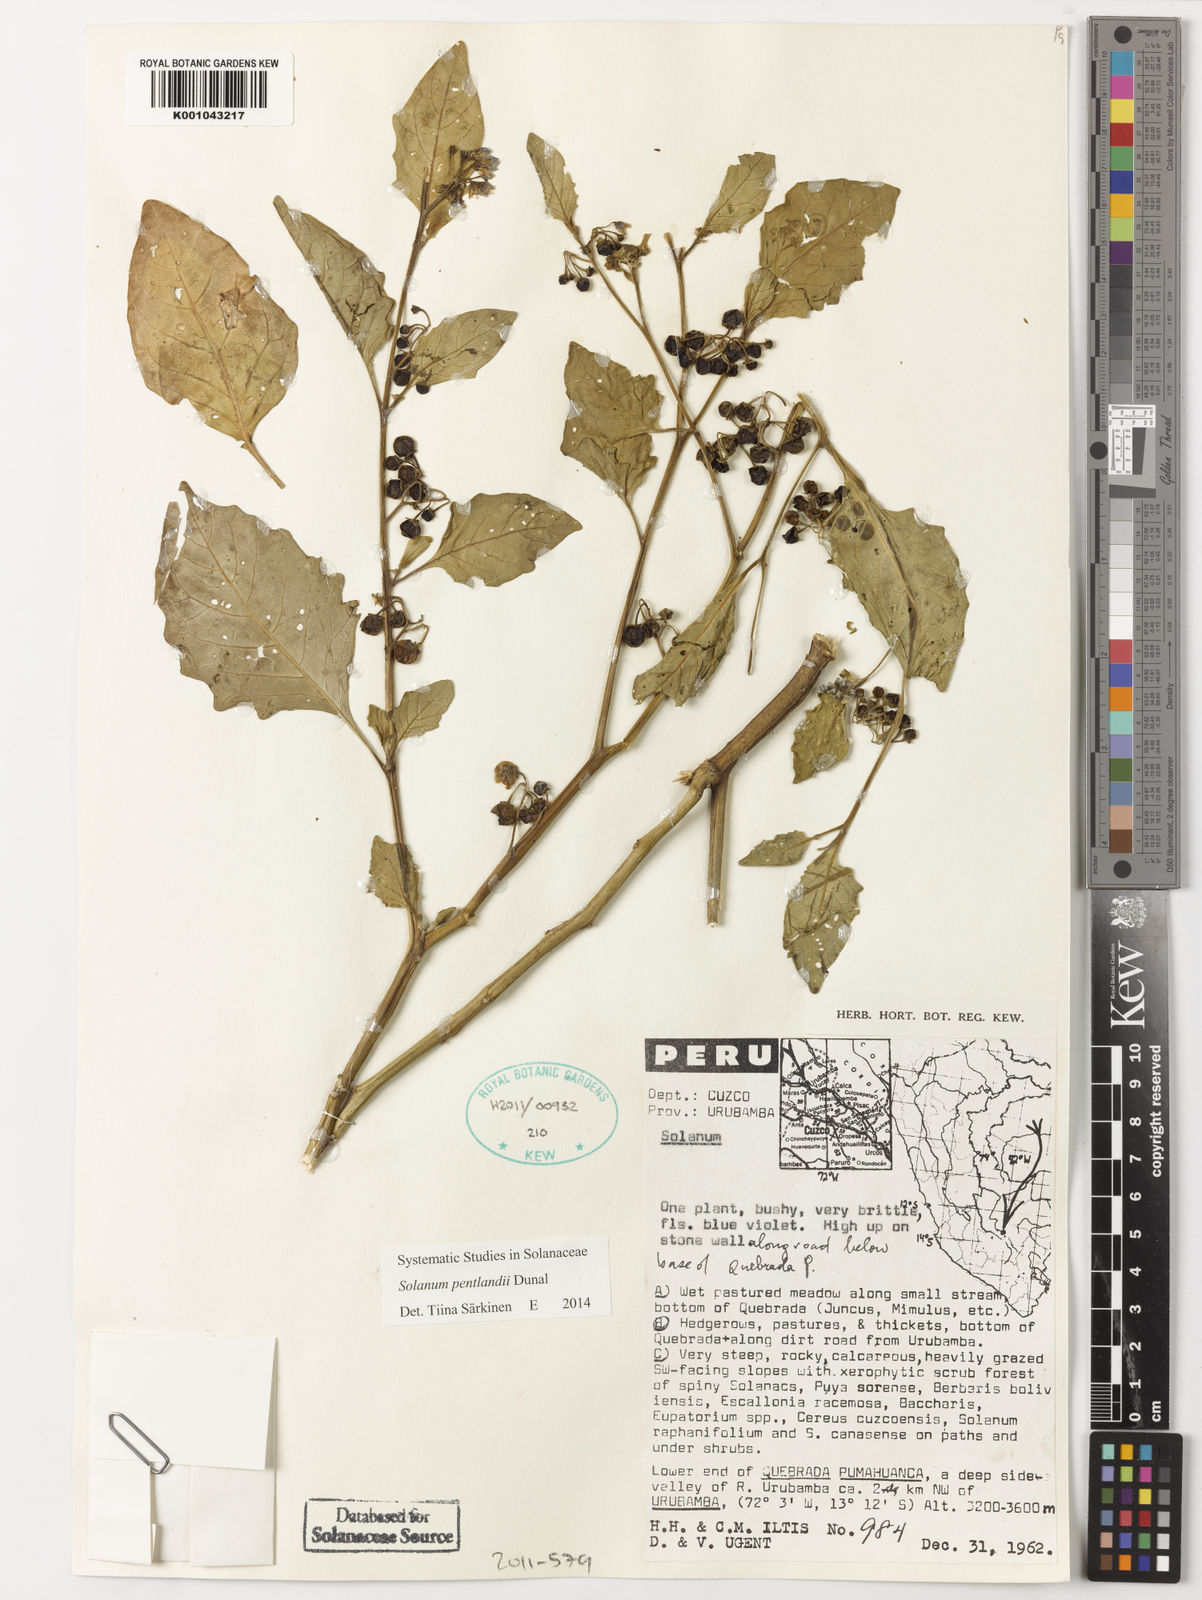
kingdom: Plantae
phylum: Tracheophyta
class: Magnoliopsida
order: Solanales
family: Solanaceae
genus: Solanum
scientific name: Solanum pentlandii
